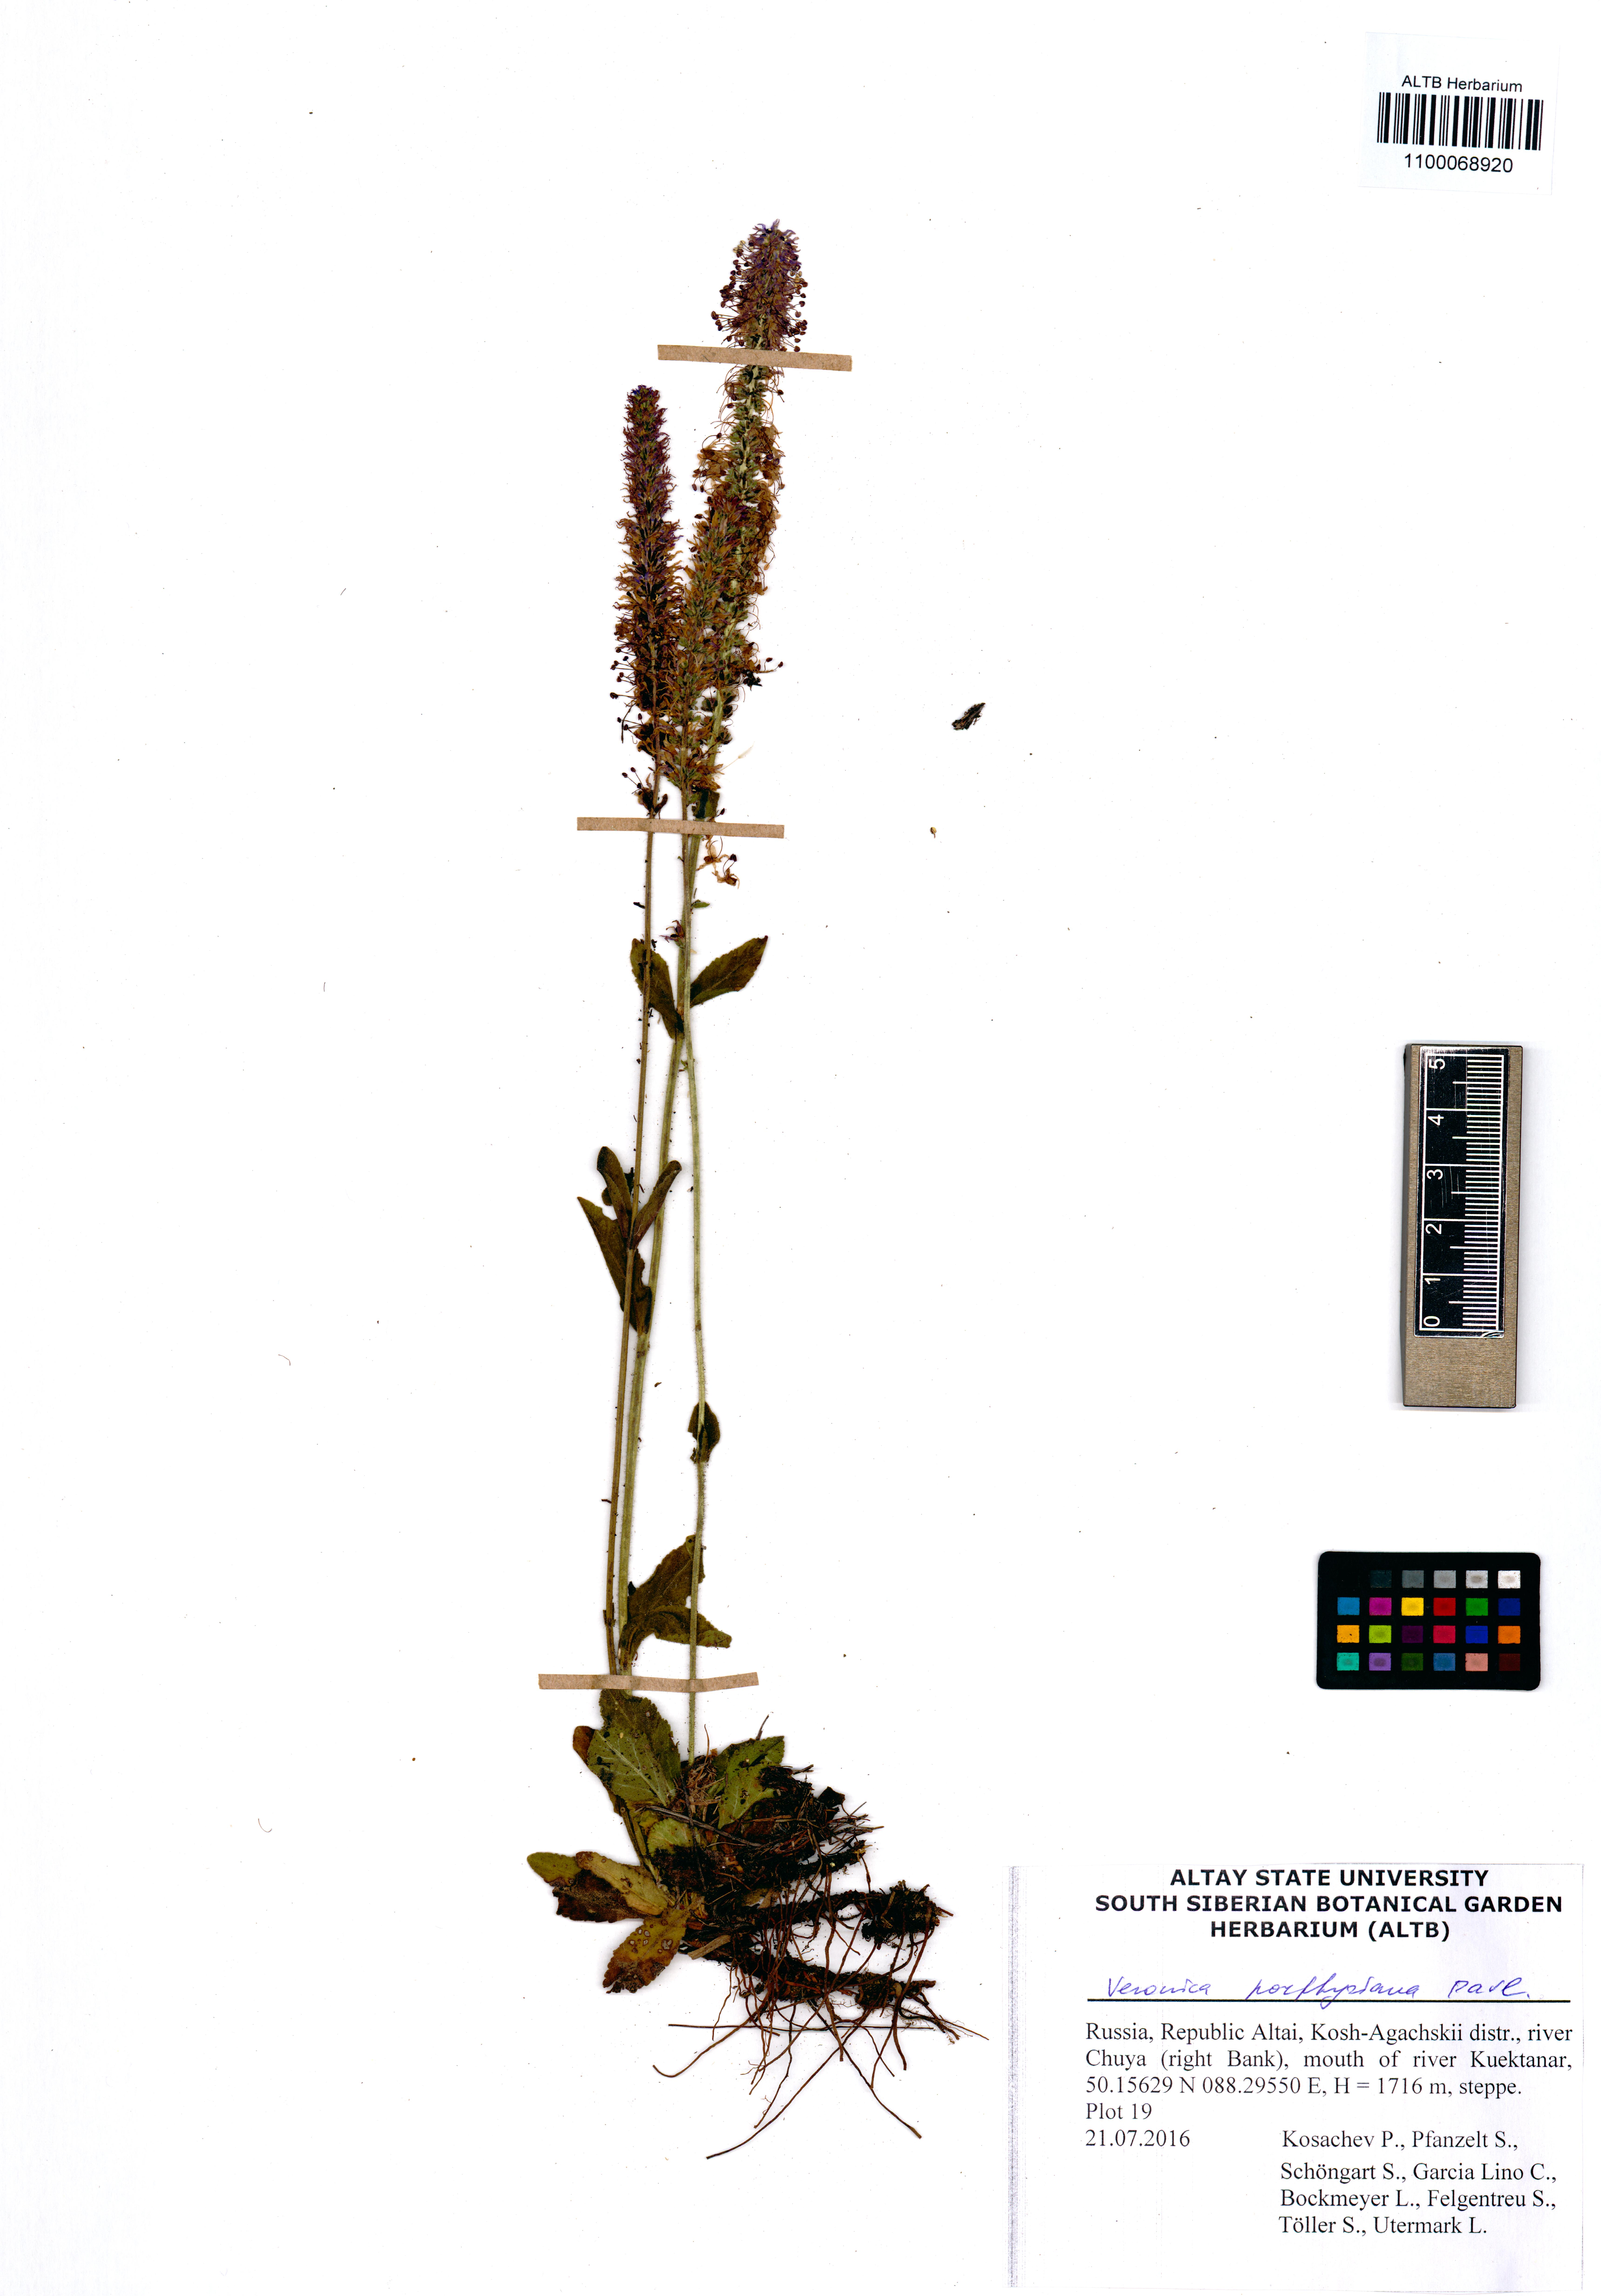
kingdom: Plantae
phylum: Tracheophyta
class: Magnoliopsida
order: Lamiales
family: Plantaginaceae
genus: Veronica
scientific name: Veronica porphyriana
